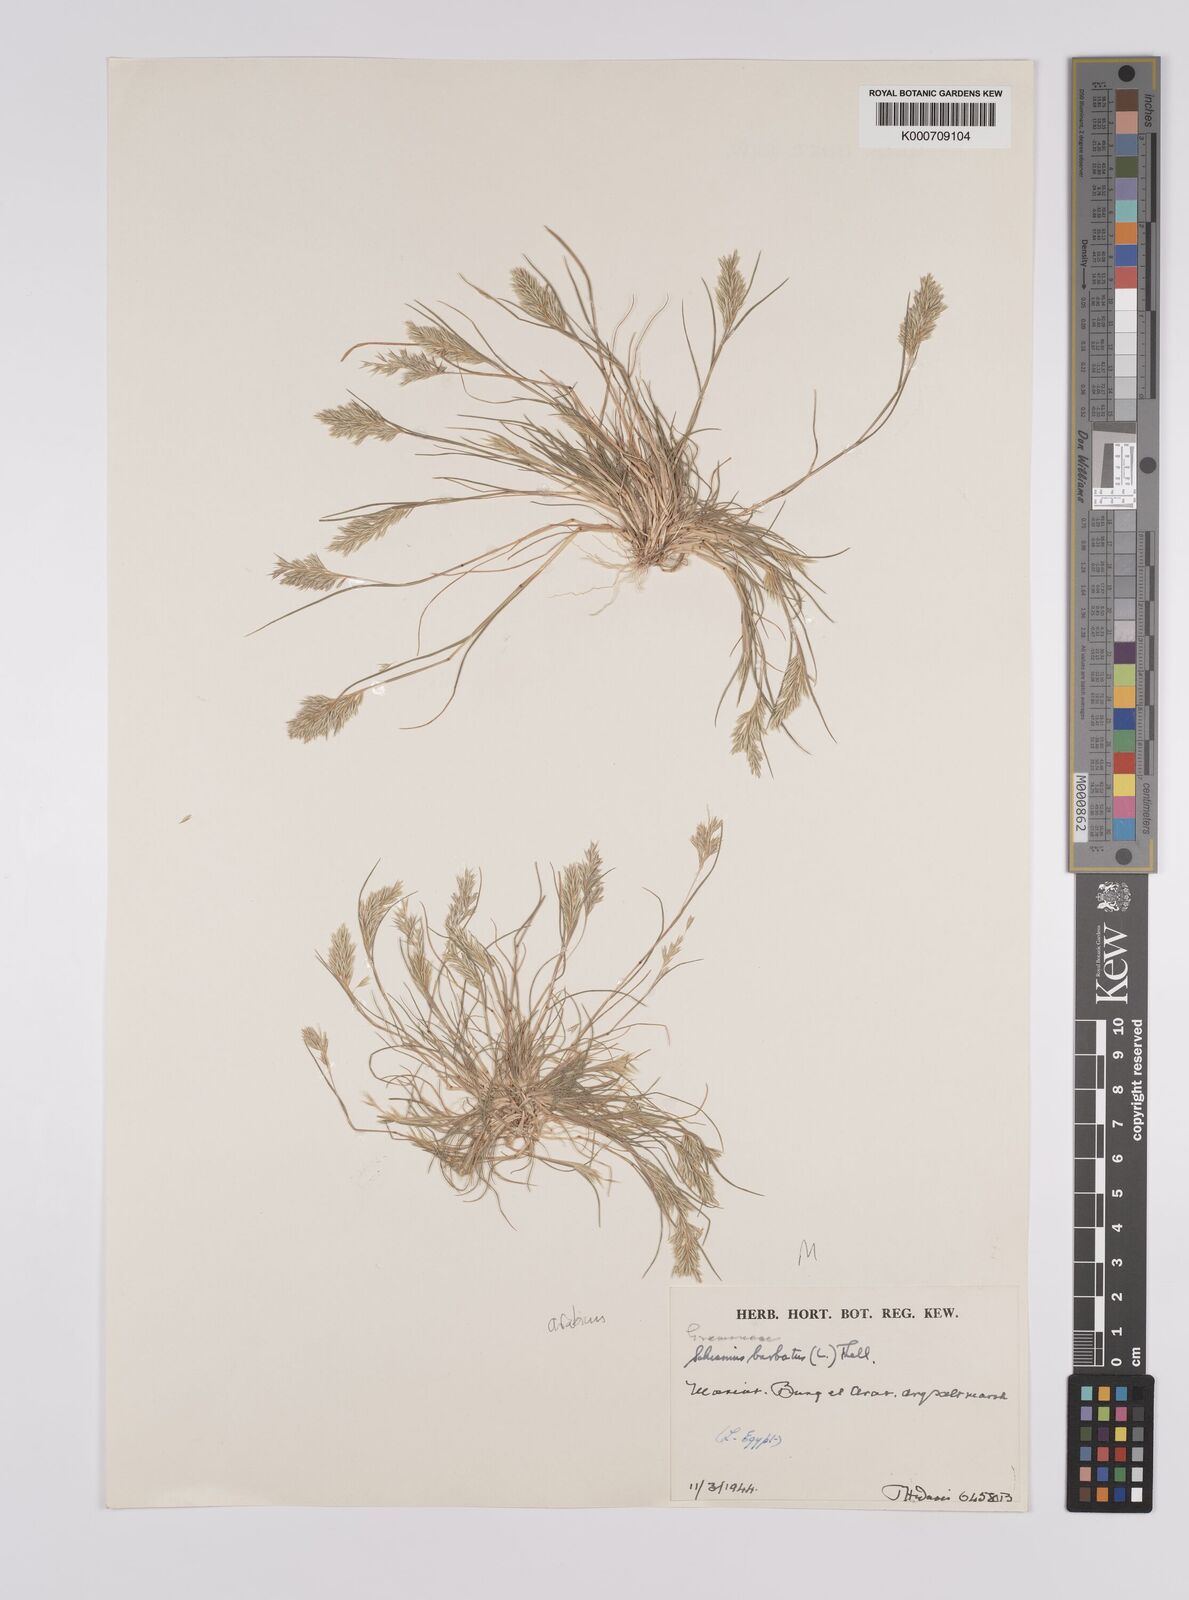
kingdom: Plantae
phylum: Tracheophyta
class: Liliopsida
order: Poales
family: Poaceae
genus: Schismus
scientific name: Schismus arabicus
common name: Arabian schismus
